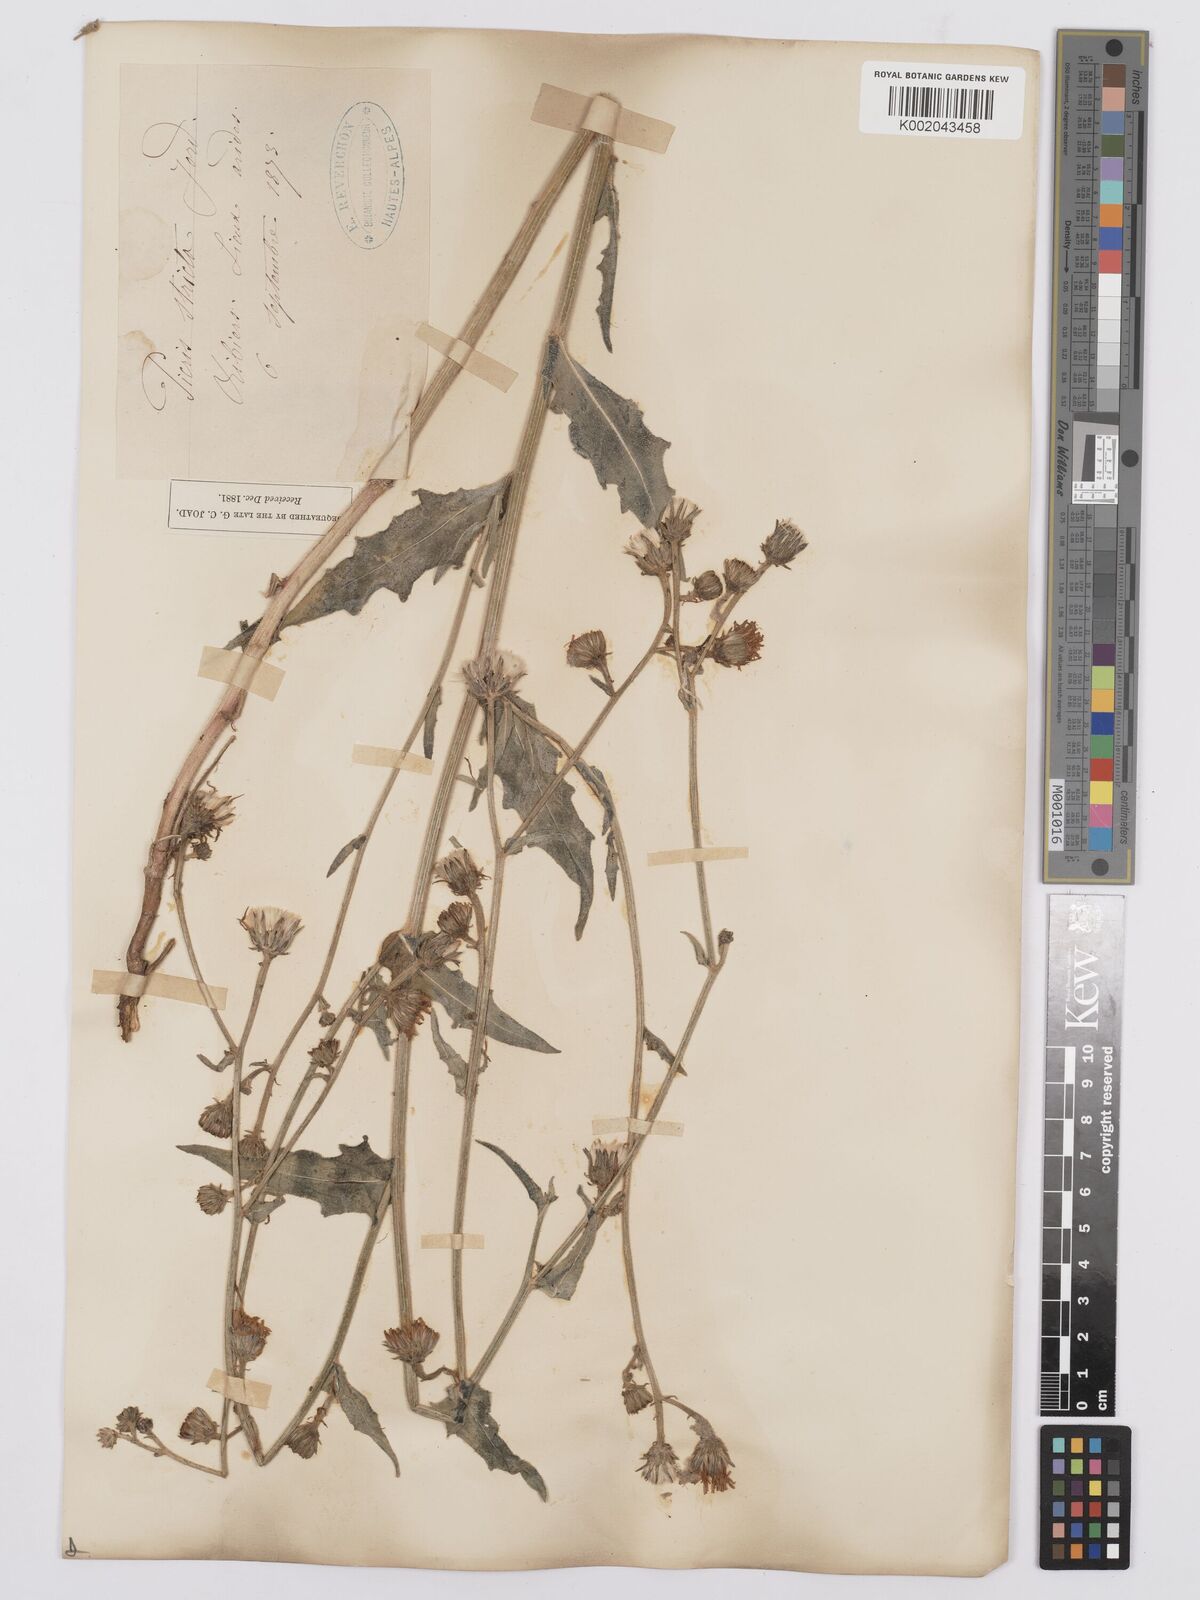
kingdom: Plantae
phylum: Tracheophyta
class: Magnoliopsida
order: Asterales
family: Asteraceae
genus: Picris
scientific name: Picris hieracioides
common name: Hawkweed oxtongue
